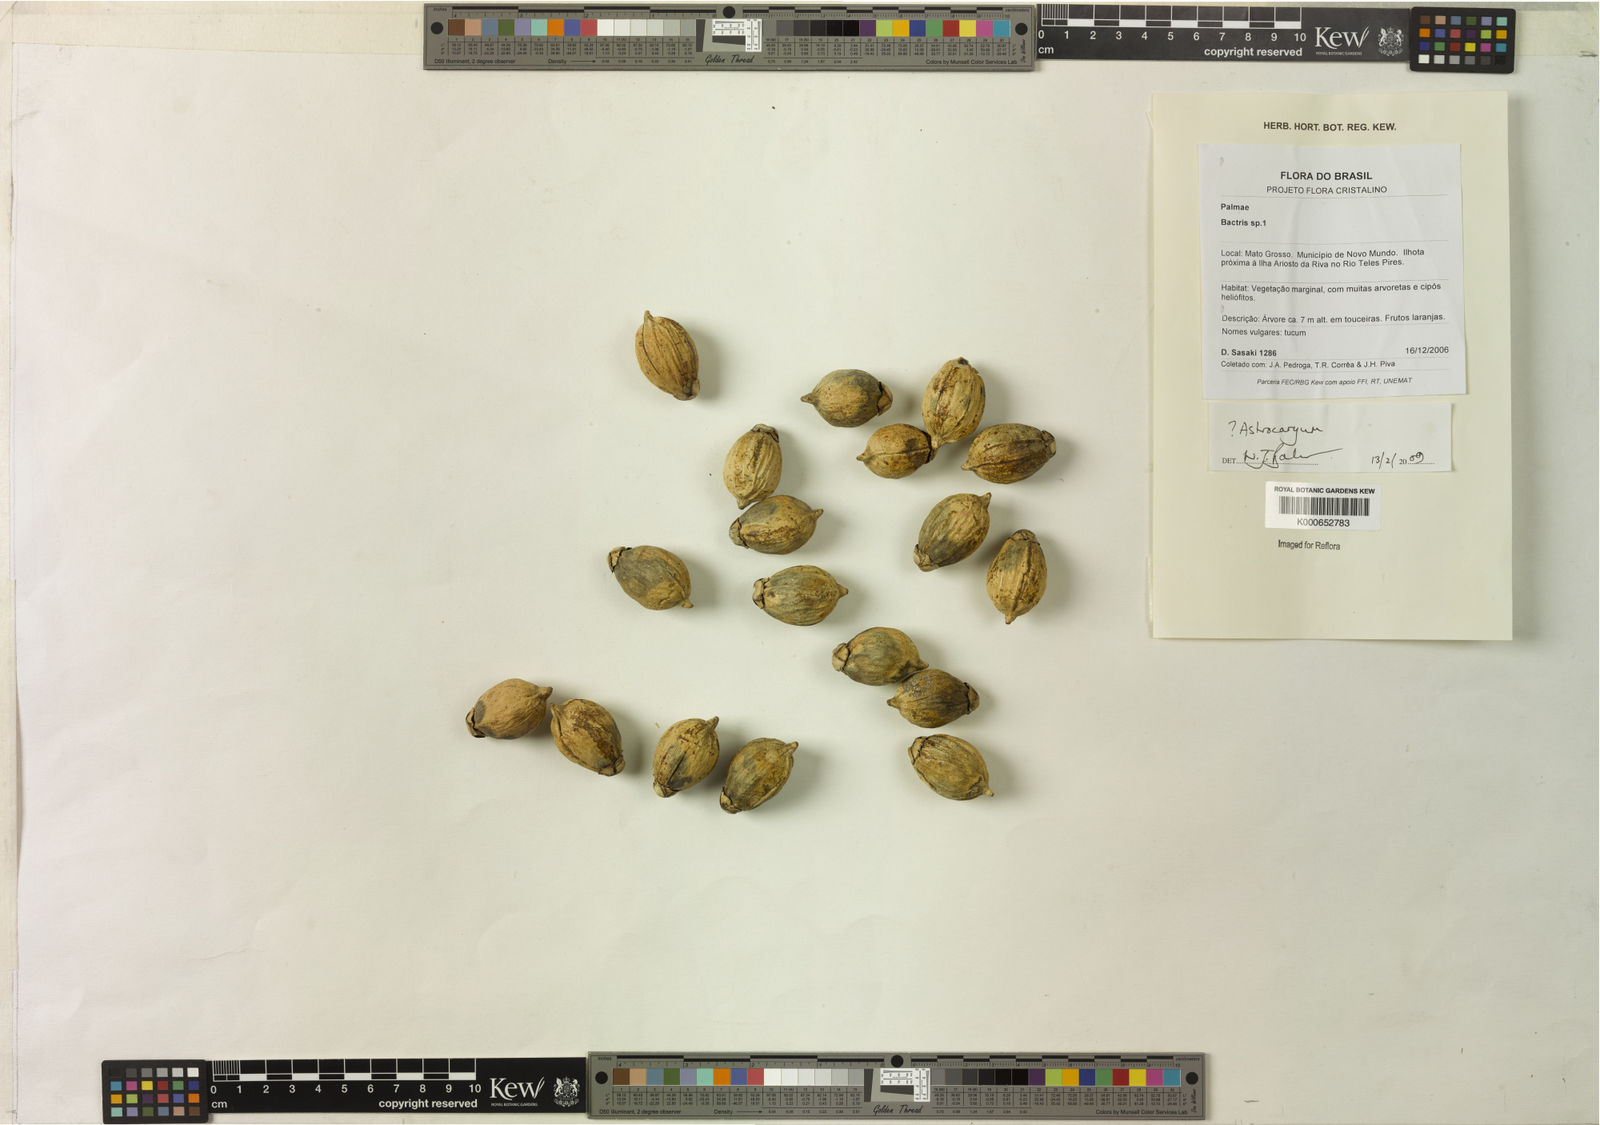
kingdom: Plantae
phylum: Tracheophyta
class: Liliopsida
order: Arecales
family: Arecaceae
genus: Astrocaryum
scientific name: Astrocaryum
